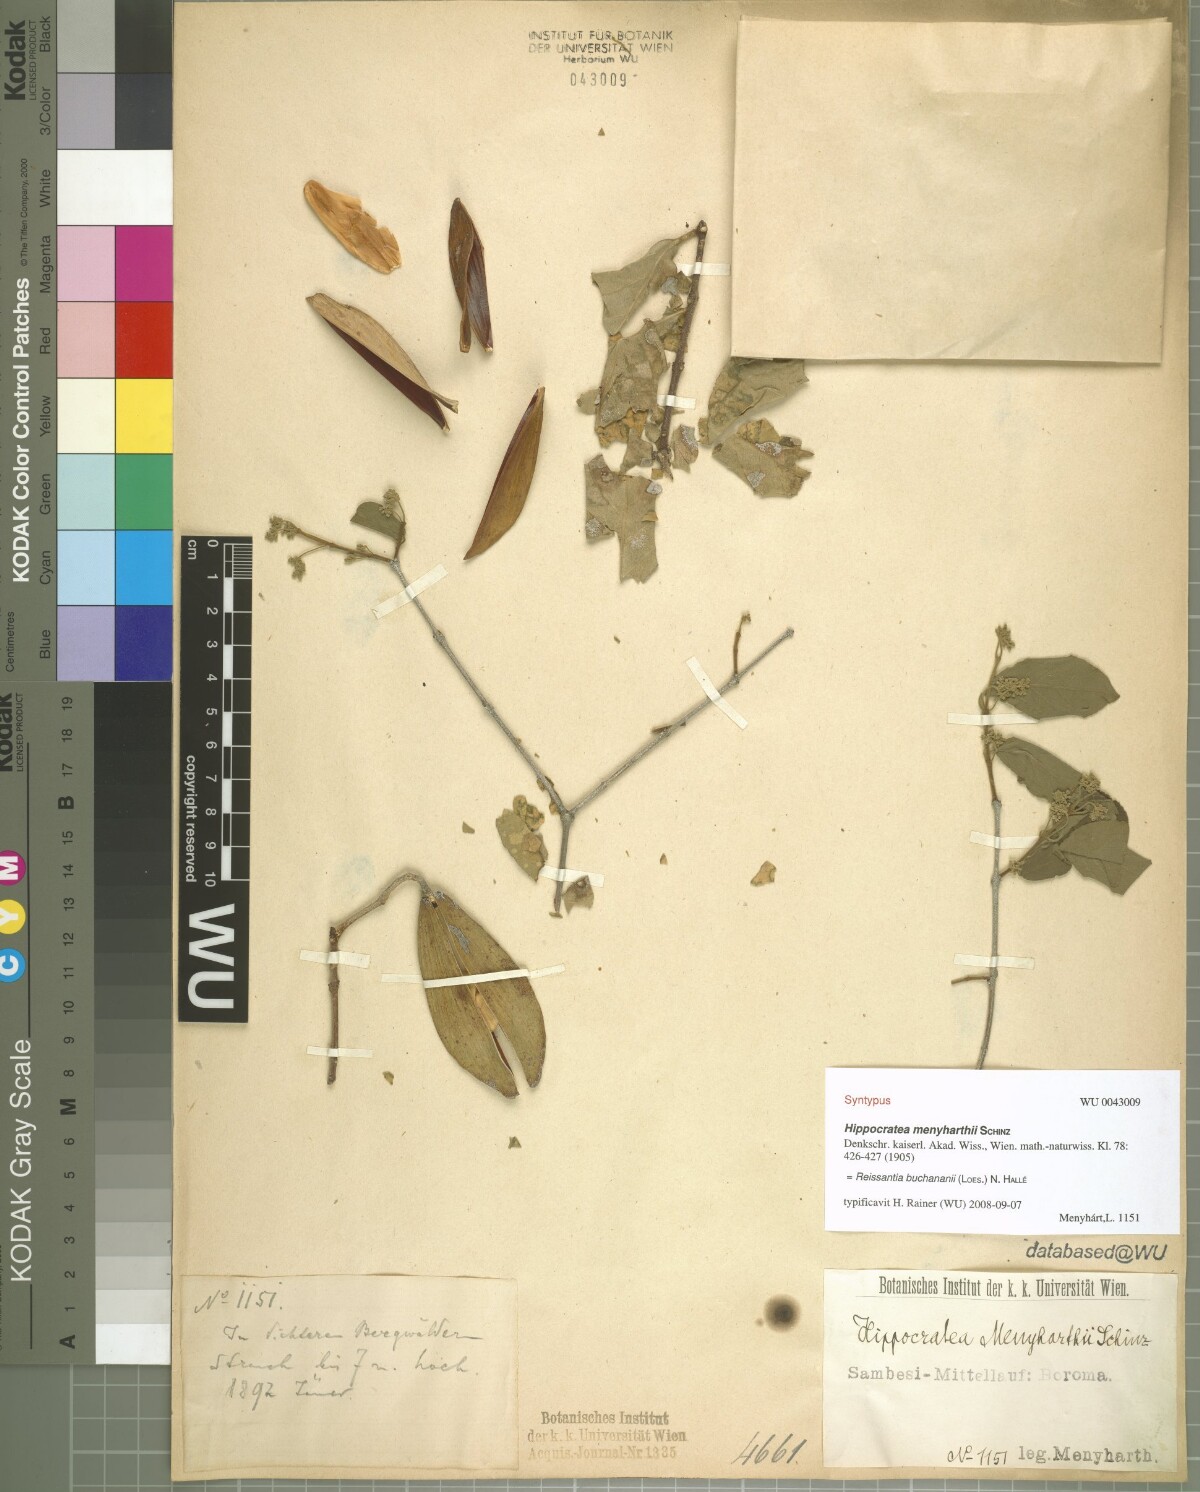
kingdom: Plantae
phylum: Tracheophyta
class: Magnoliopsida
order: Celastrales
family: Celastraceae
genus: Reissantia
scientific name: Reissantia buchananii
